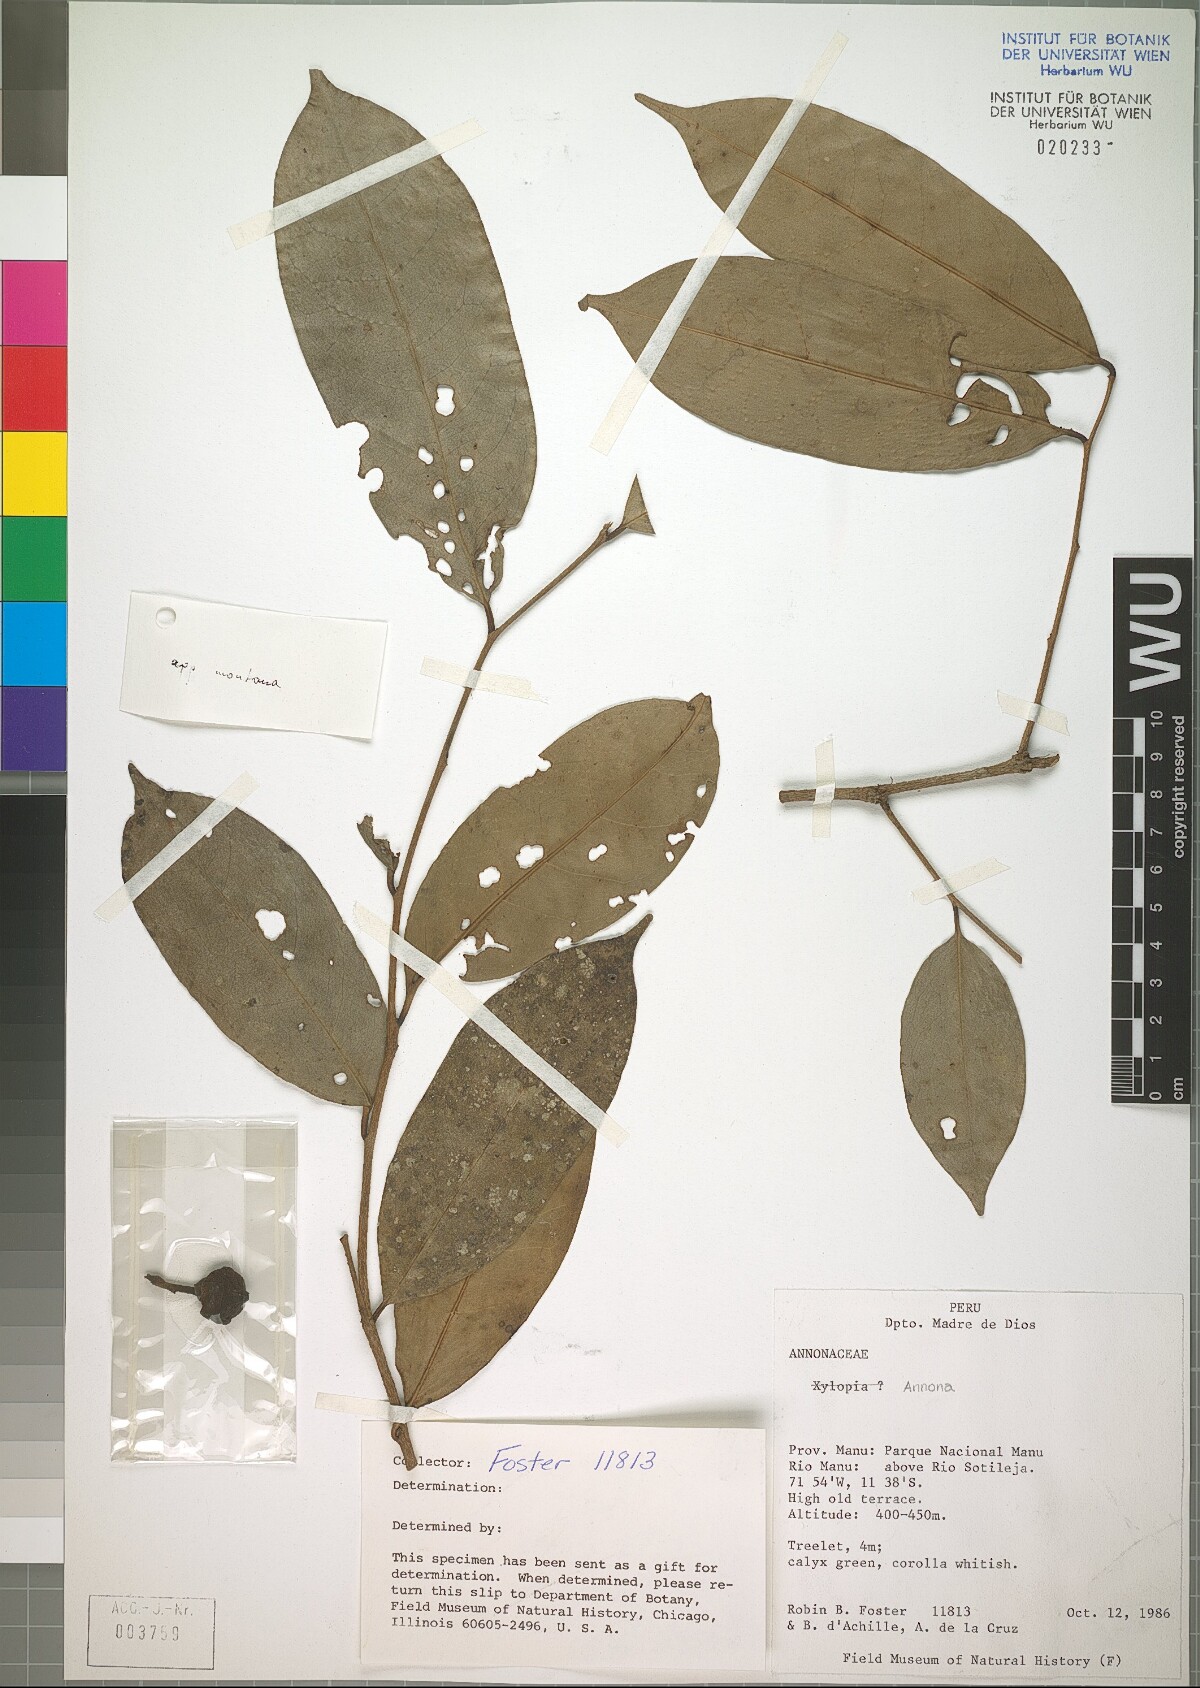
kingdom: Plantae
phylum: Tracheophyta
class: Magnoliopsida
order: Magnoliales
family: Annonaceae
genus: Annona
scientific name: Annona montana
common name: Mountain soursop
